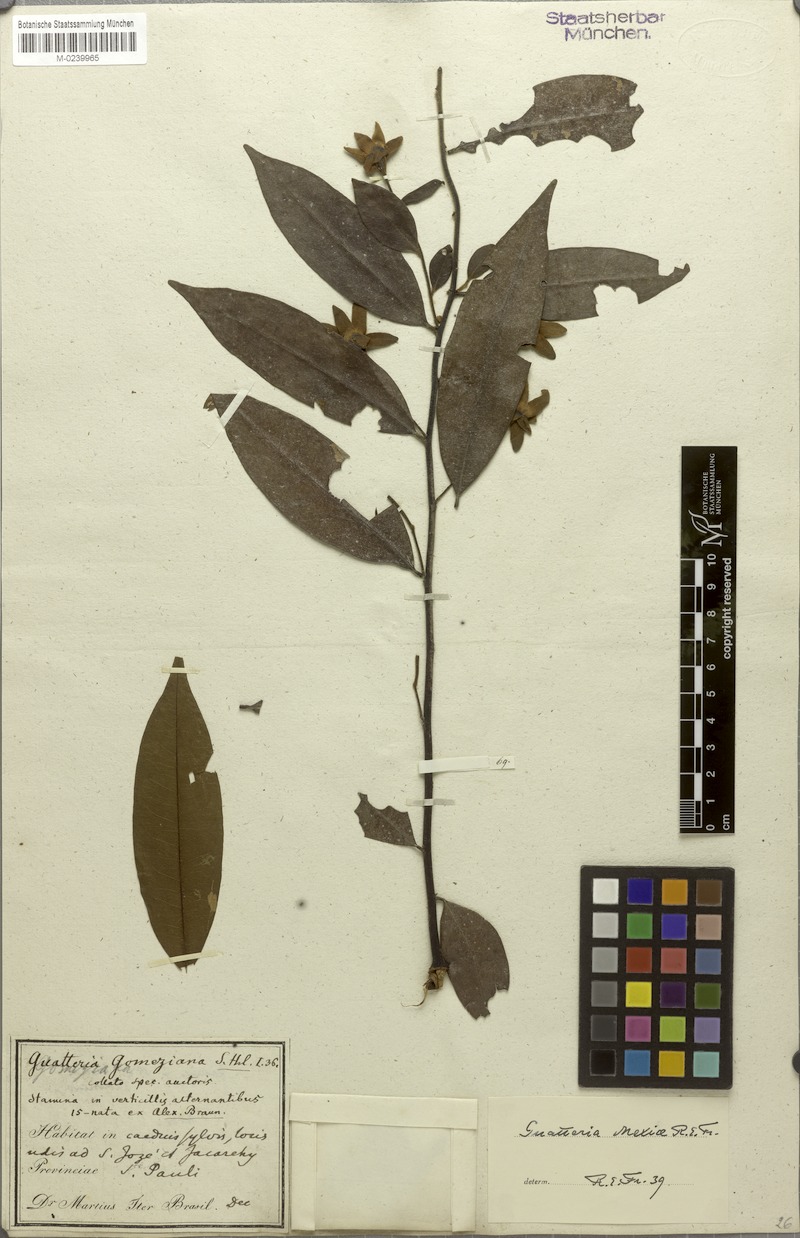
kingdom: Plantae
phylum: Tracheophyta
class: Magnoliopsida
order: Magnoliales
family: Annonaceae
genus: Guatteria
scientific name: Guatteria sellowiana
